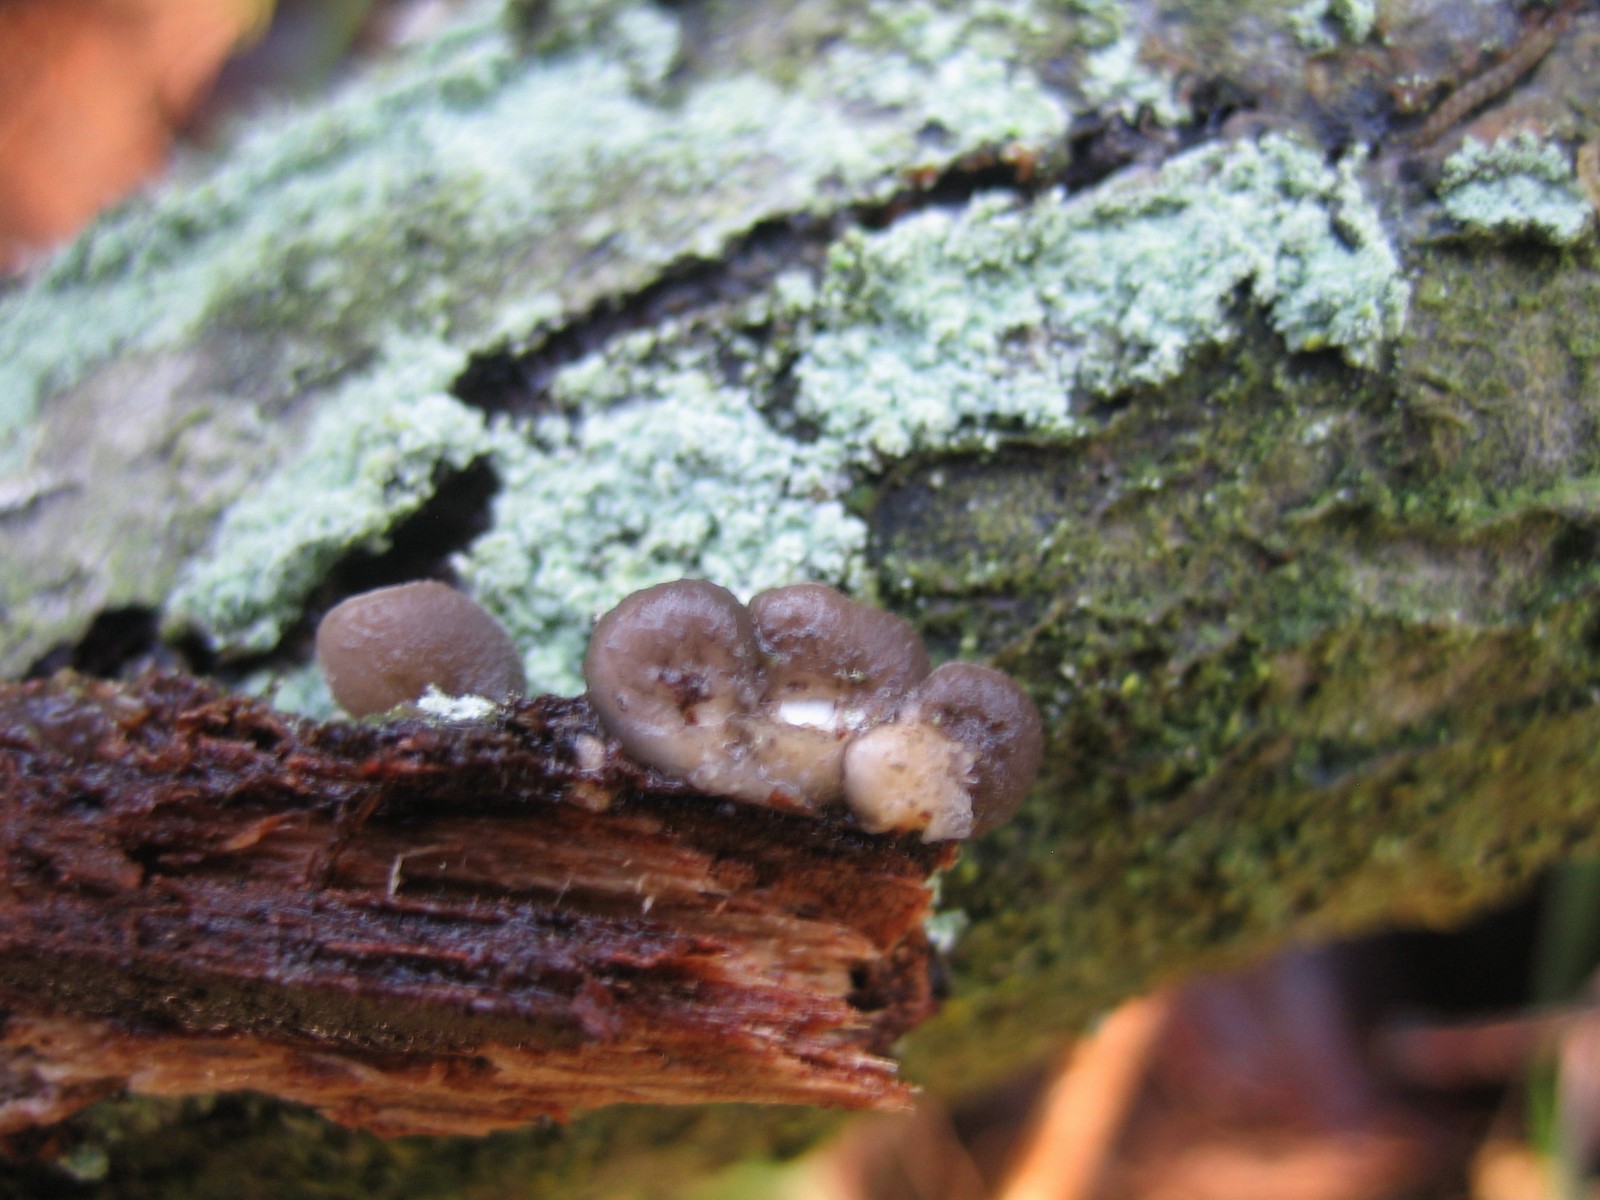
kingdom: Fungi
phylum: Basidiomycota
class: Agaricomycetes
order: Agaricales
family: Pleurotaceae
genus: Hohenbuehelia
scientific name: Hohenbuehelia
